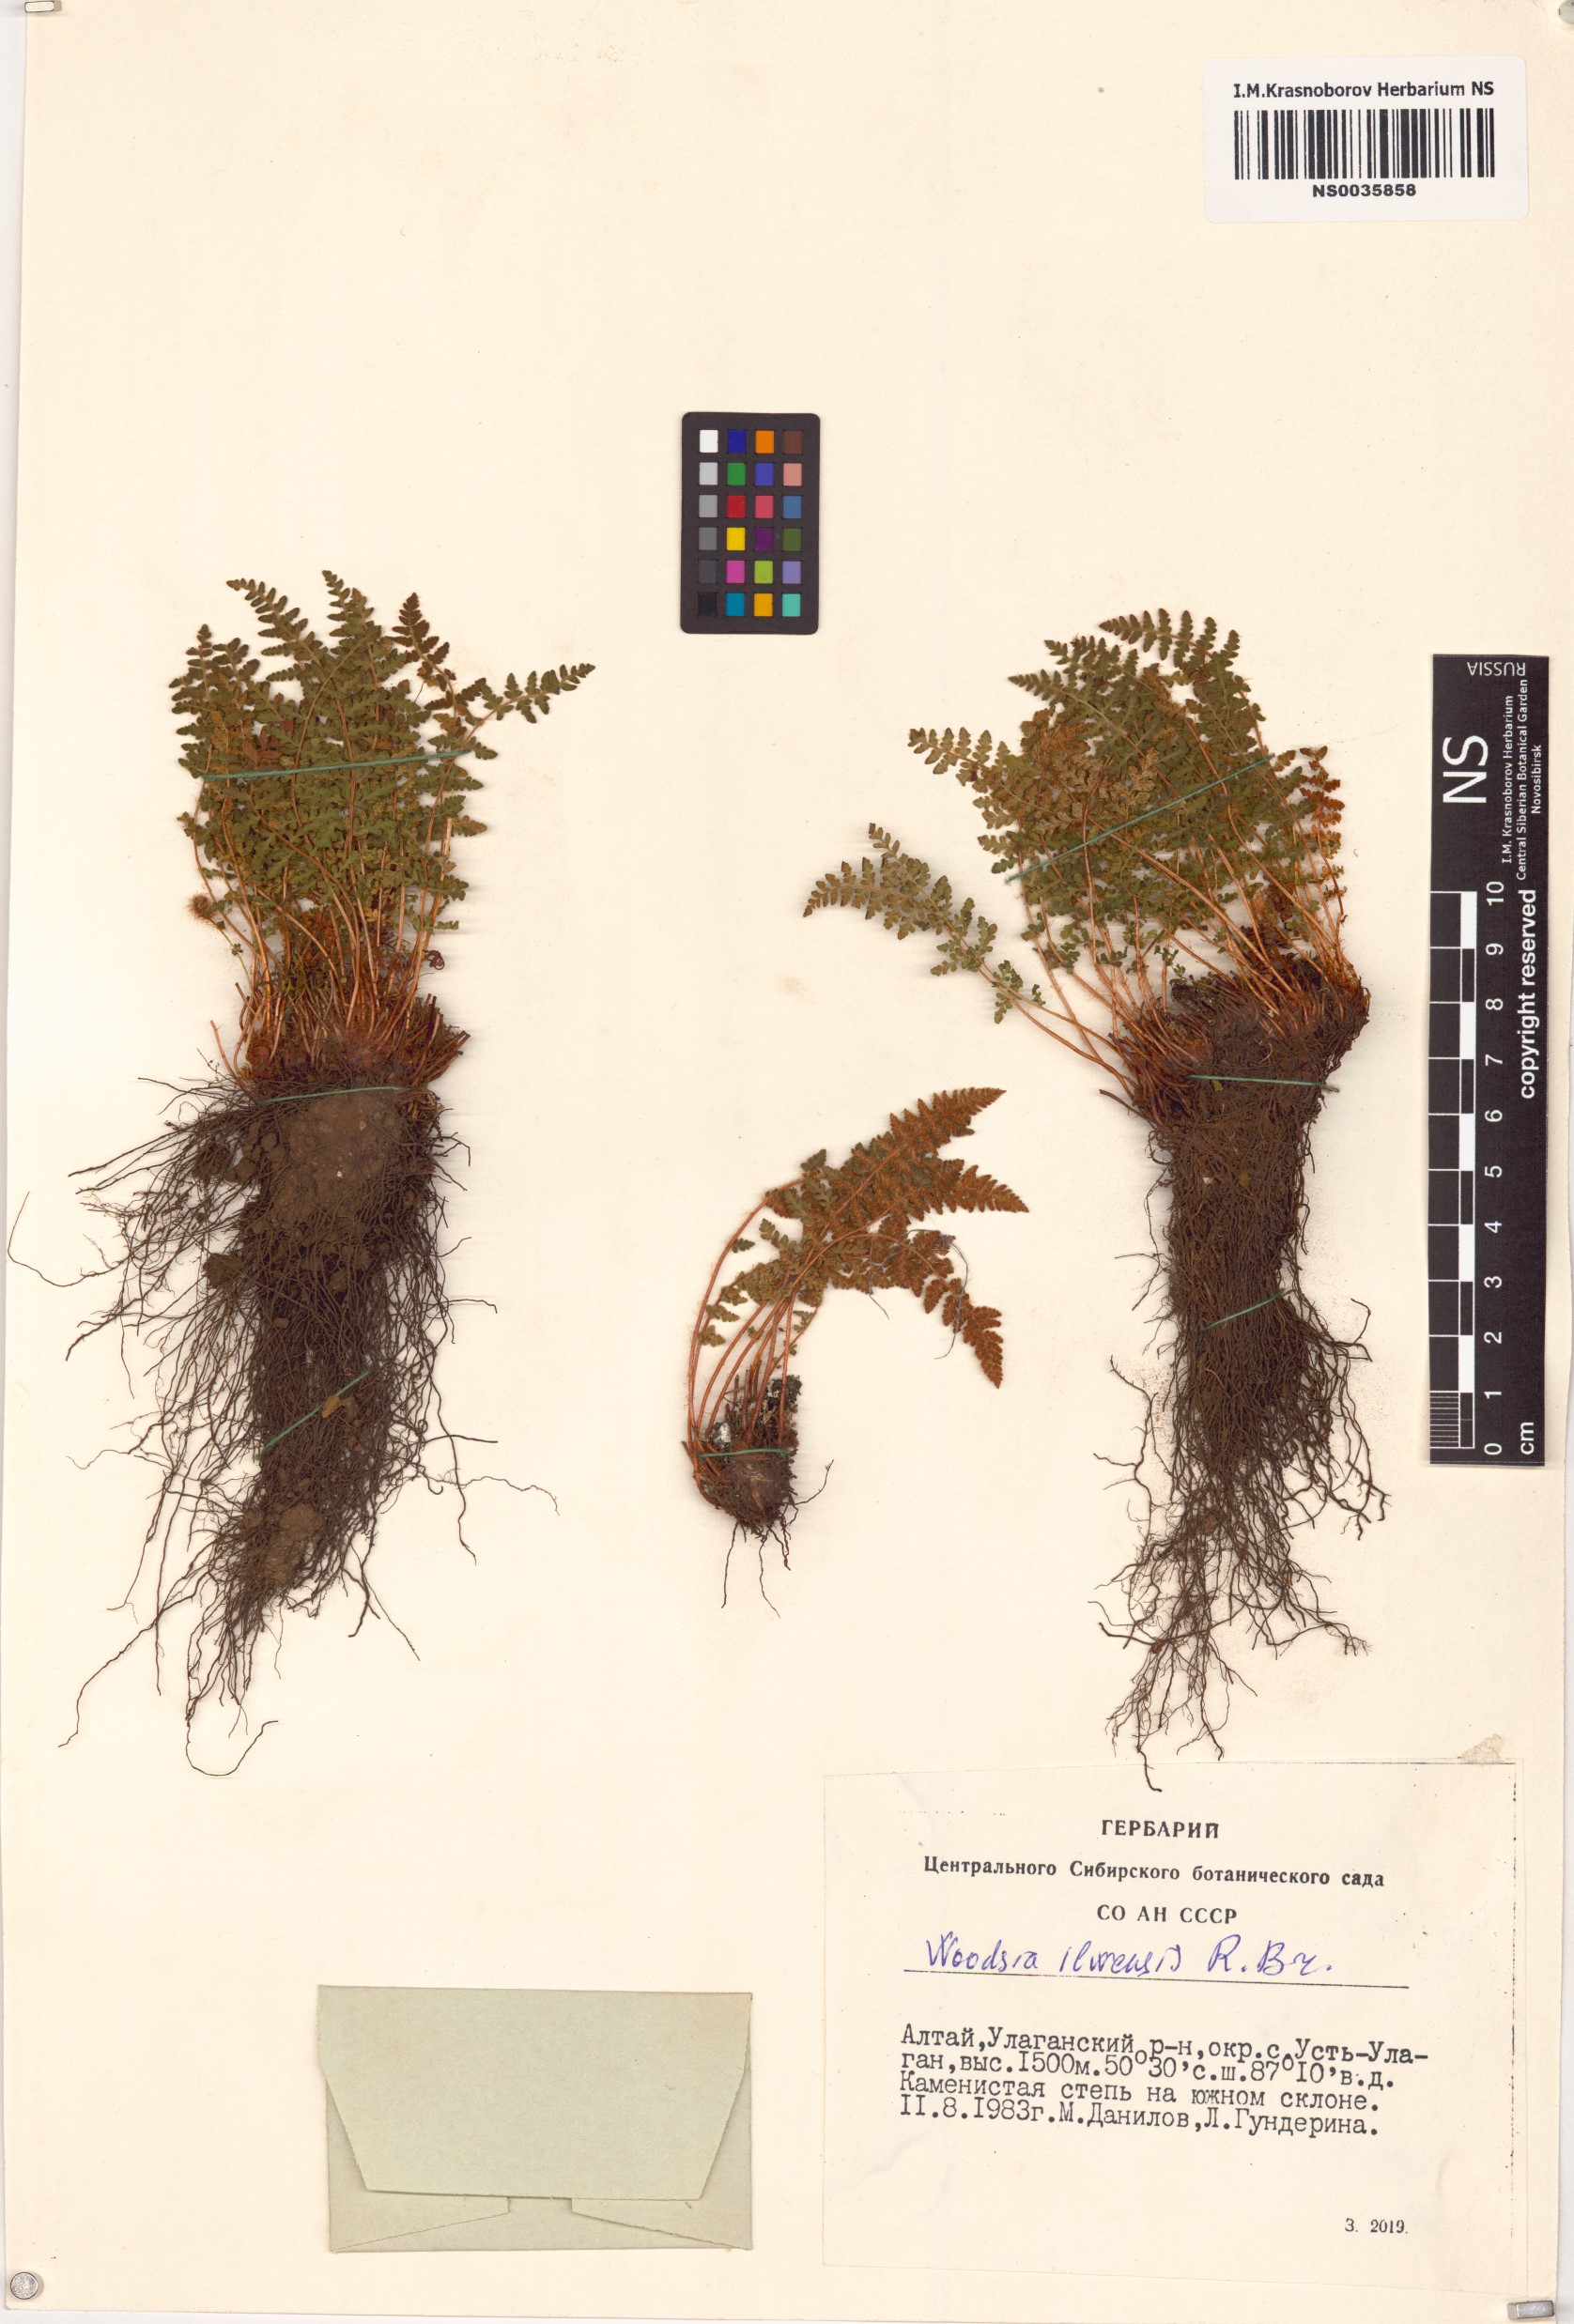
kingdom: Plantae
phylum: Tracheophyta
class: Polypodiopsida
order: Polypodiales
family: Woodsiaceae
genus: Woodsia
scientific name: Woodsia ilvensis
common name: Fragrant woodsia
